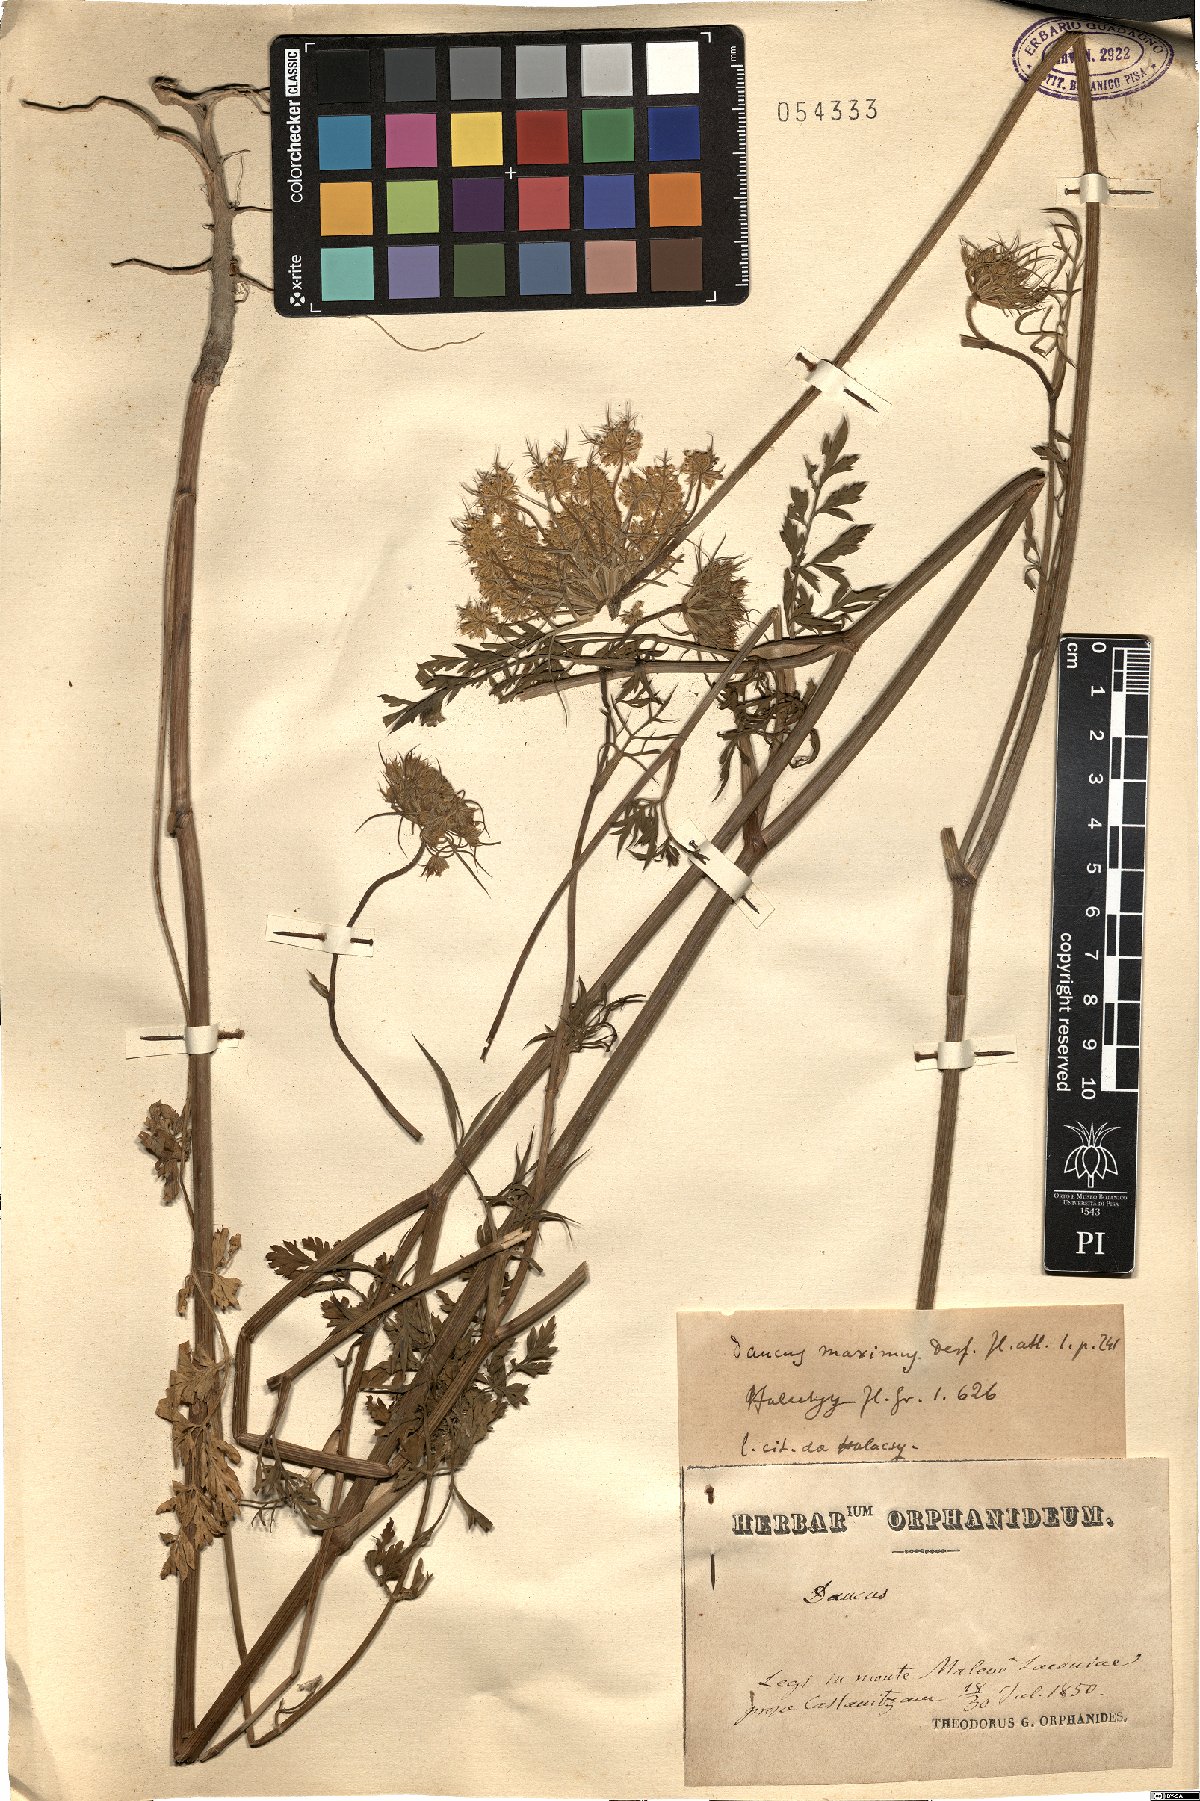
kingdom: Plantae
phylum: Tracheophyta
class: Magnoliopsida
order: Apiales
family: Apiaceae
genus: Daucus
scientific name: Daucus carota
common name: Wild carrot
